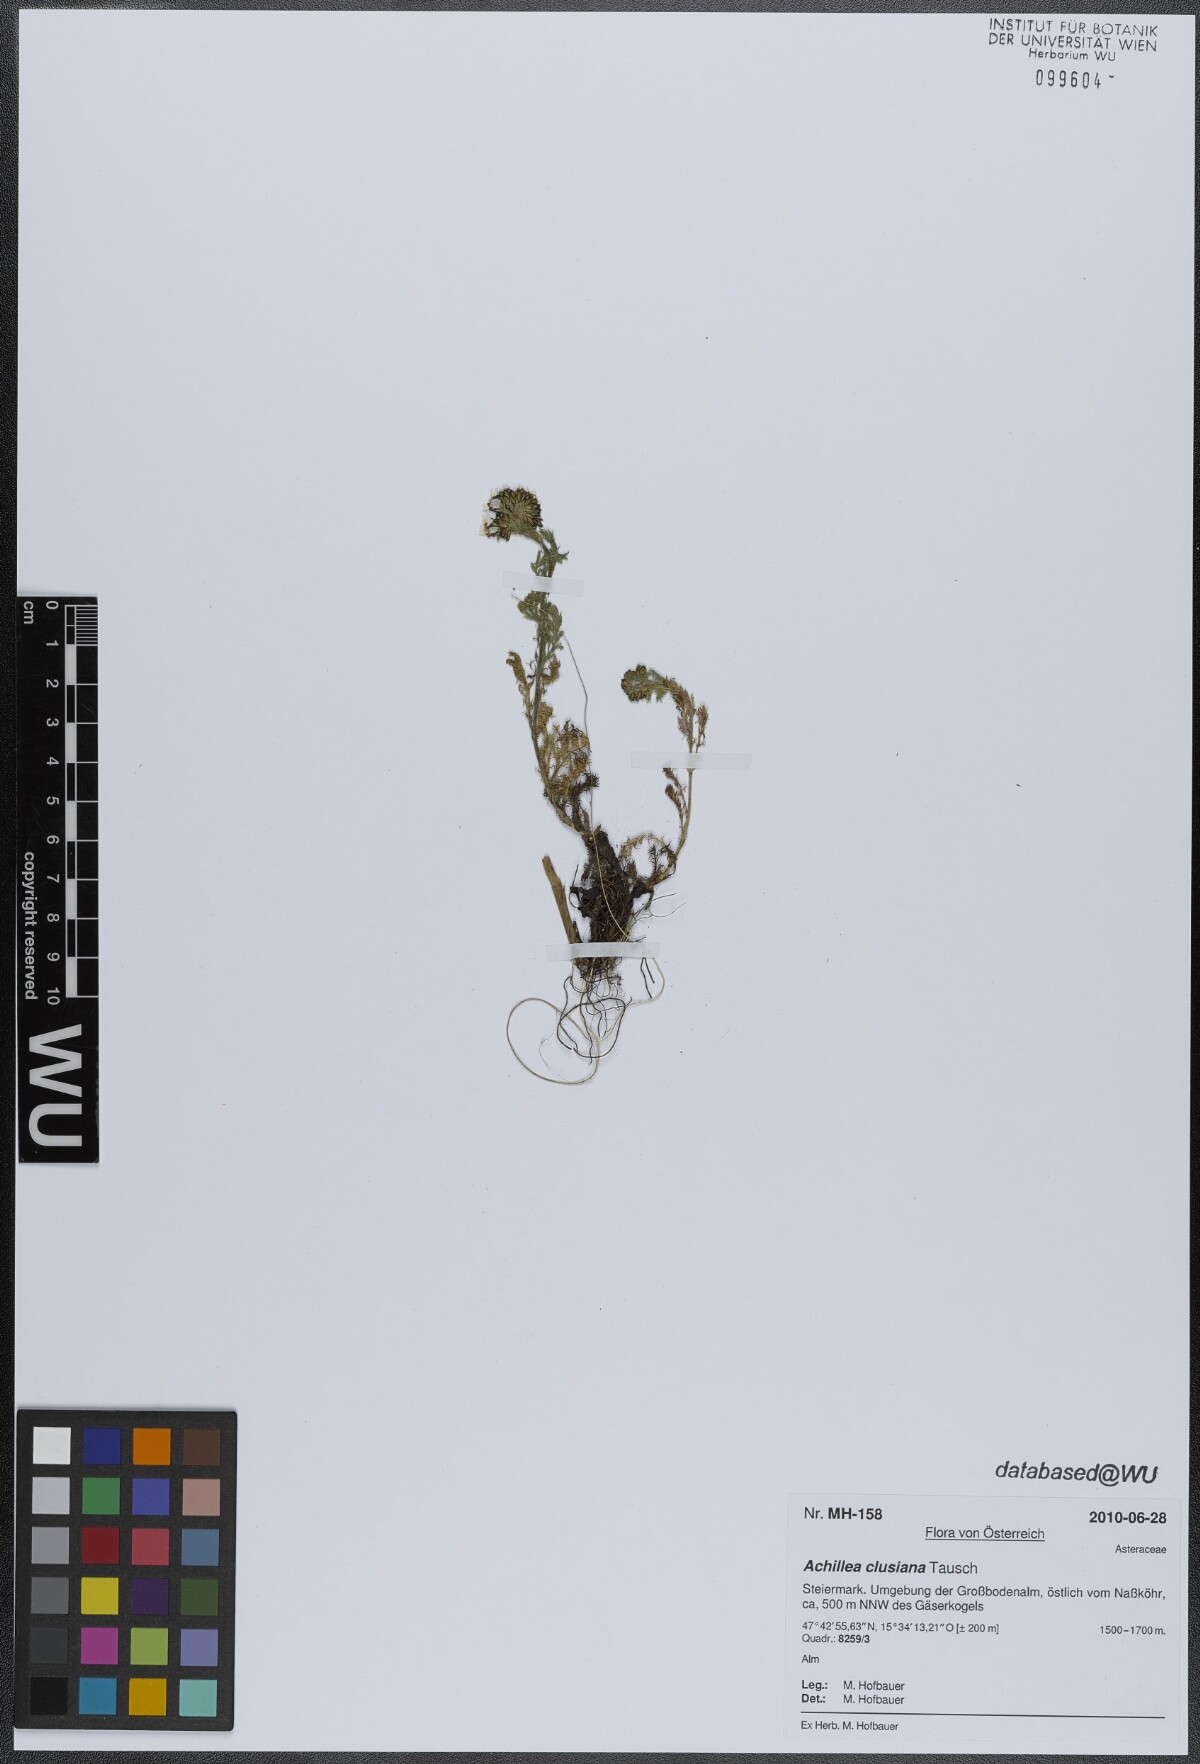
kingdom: Plantae
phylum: Tracheophyta
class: Magnoliopsida
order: Asterales
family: Asteraceae
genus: Achillea
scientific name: Achillea clusiana
